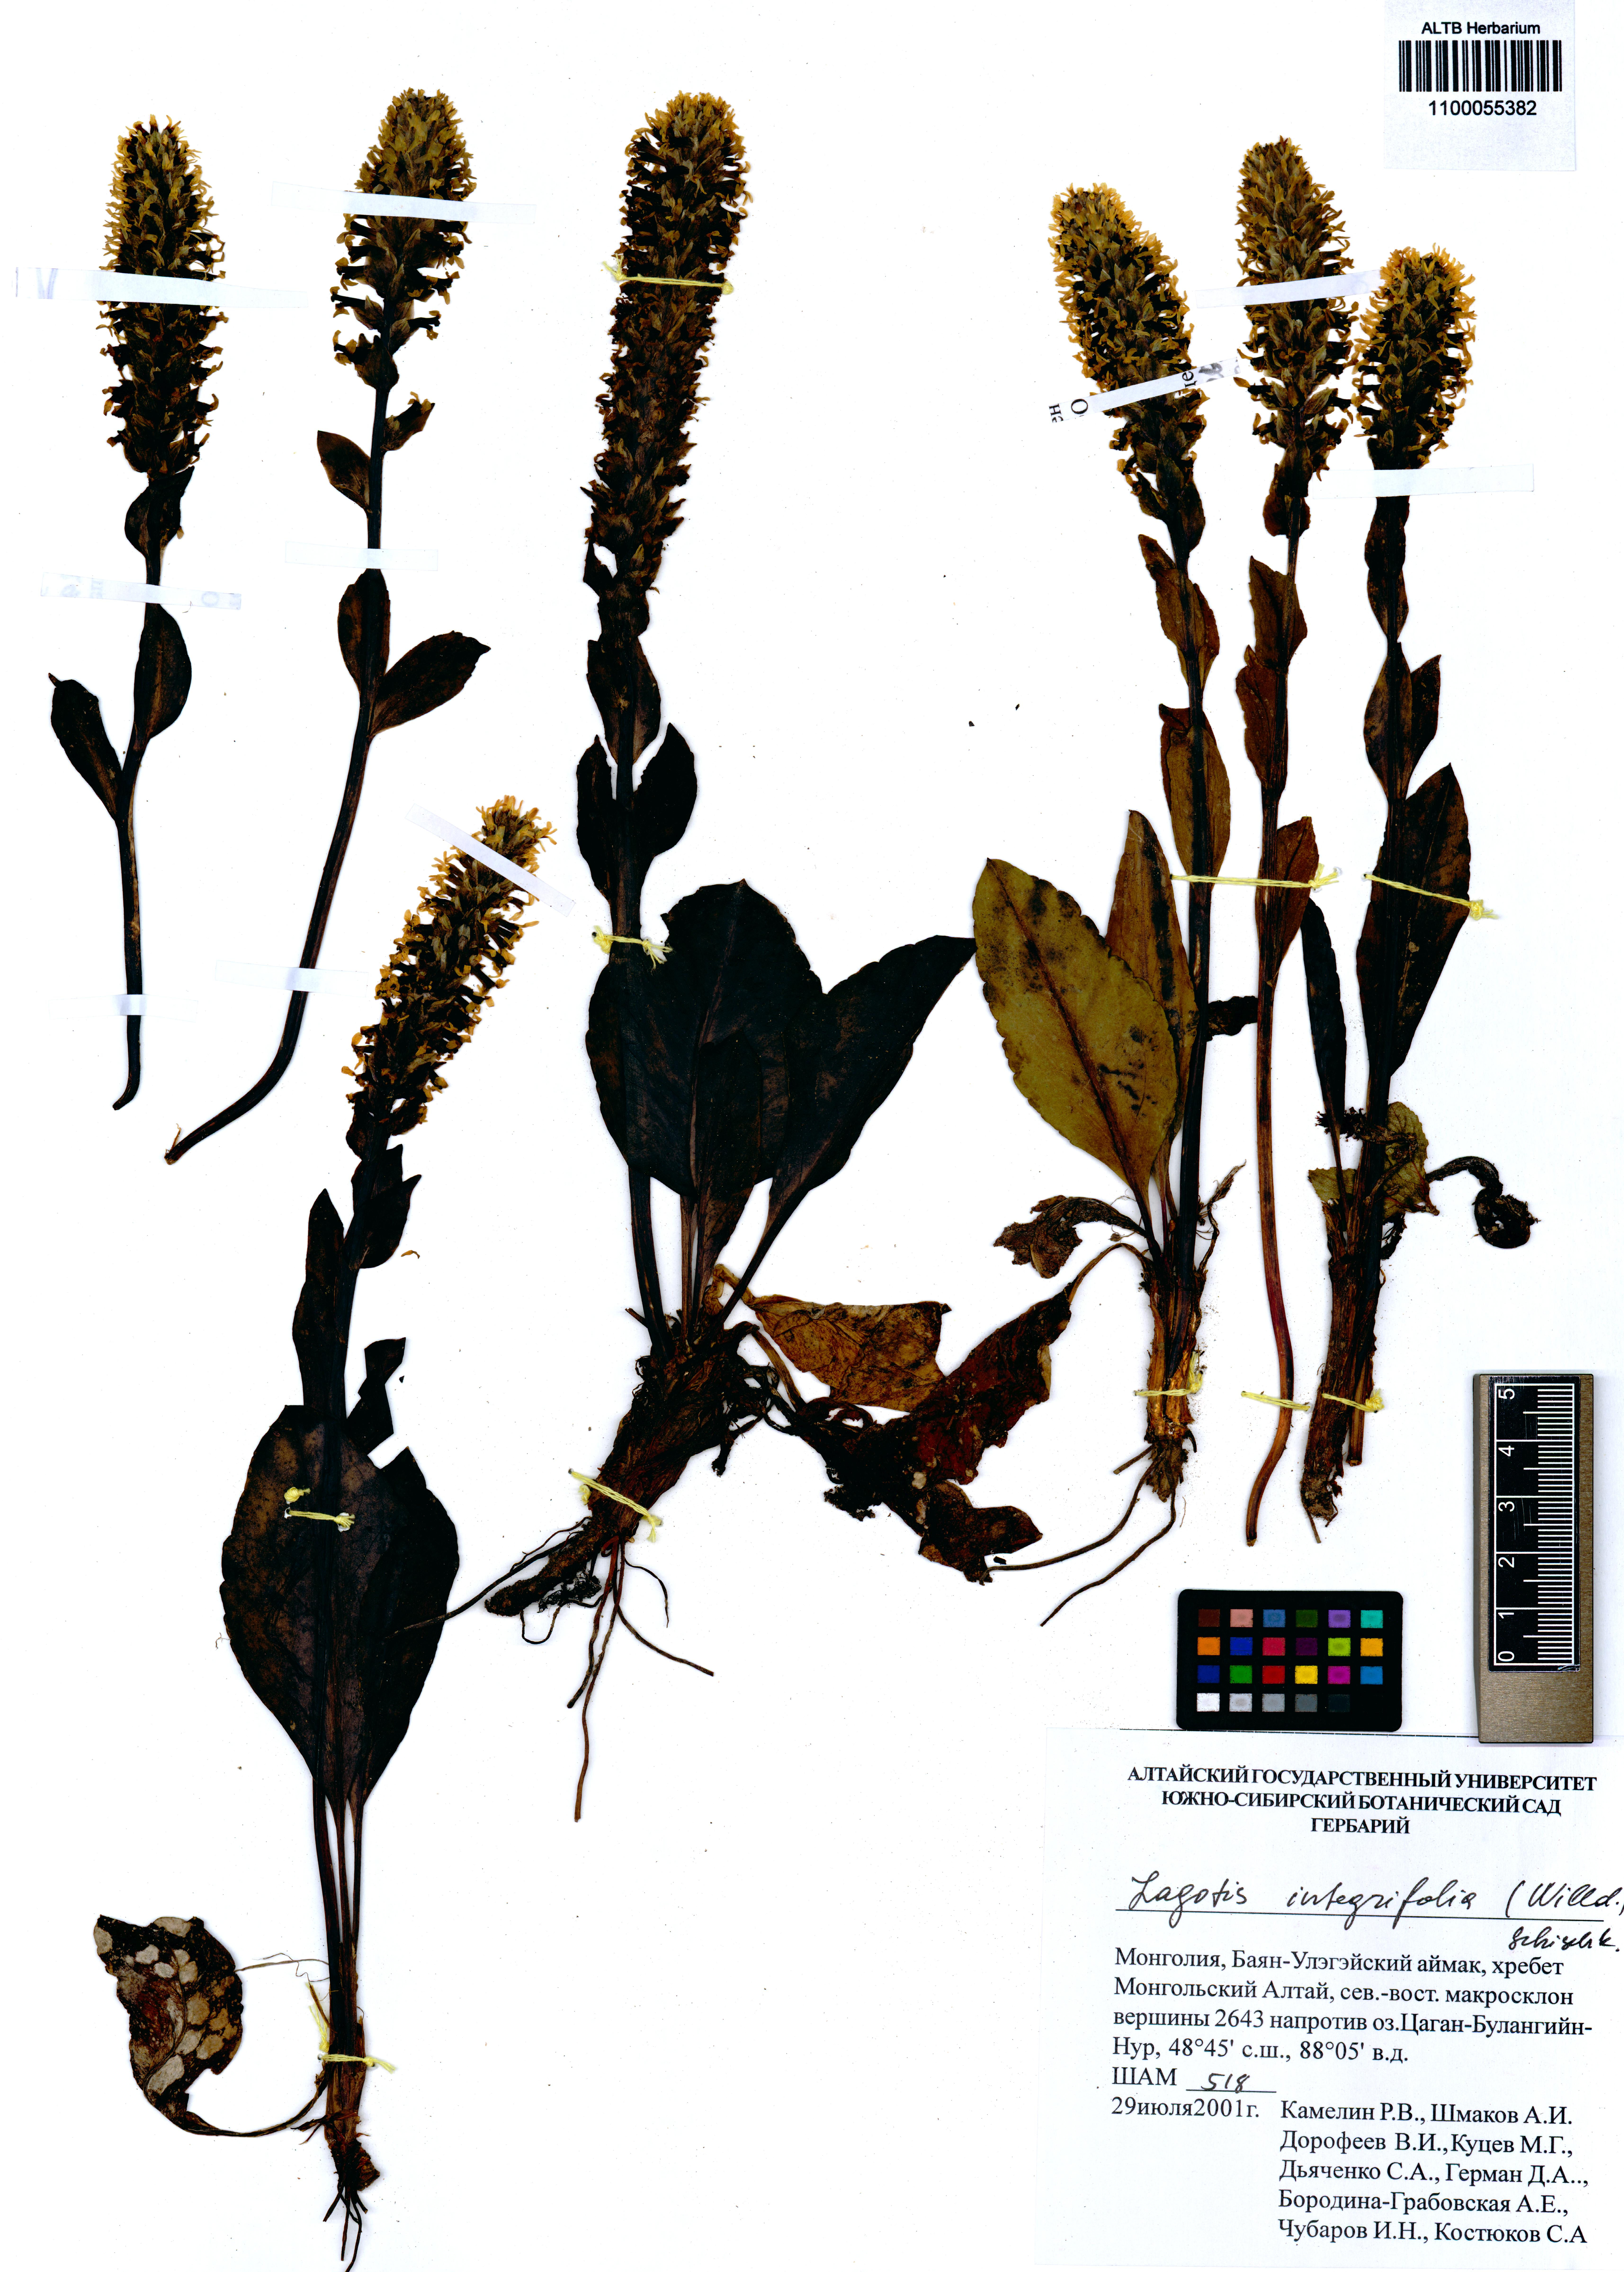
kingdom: Plantae
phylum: Tracheophyta
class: Magnoliopsida
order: Lamiales
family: Plantaginaceae
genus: Lagotis
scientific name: Lagotis integrifolia
